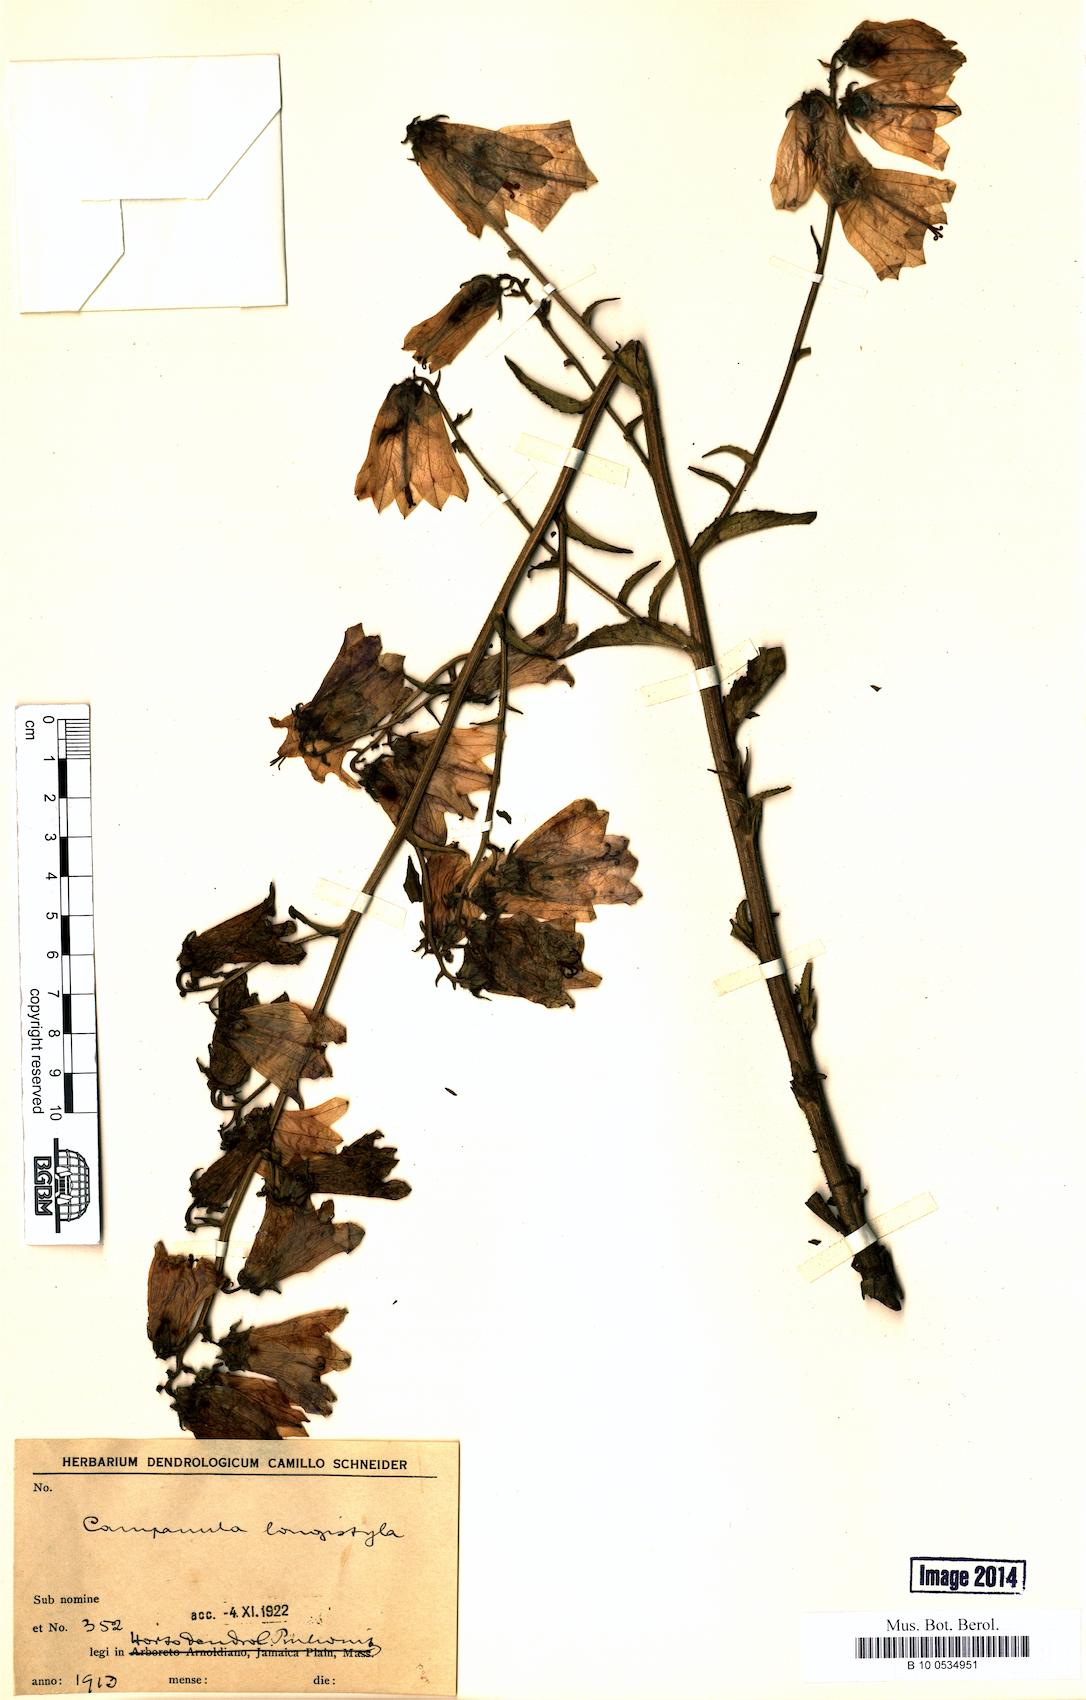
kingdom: Plantae
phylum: Tracheophyta
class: Magnoliopsida
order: Asterales
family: Campanulaceae
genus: Campanula
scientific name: Campanula longistyla
